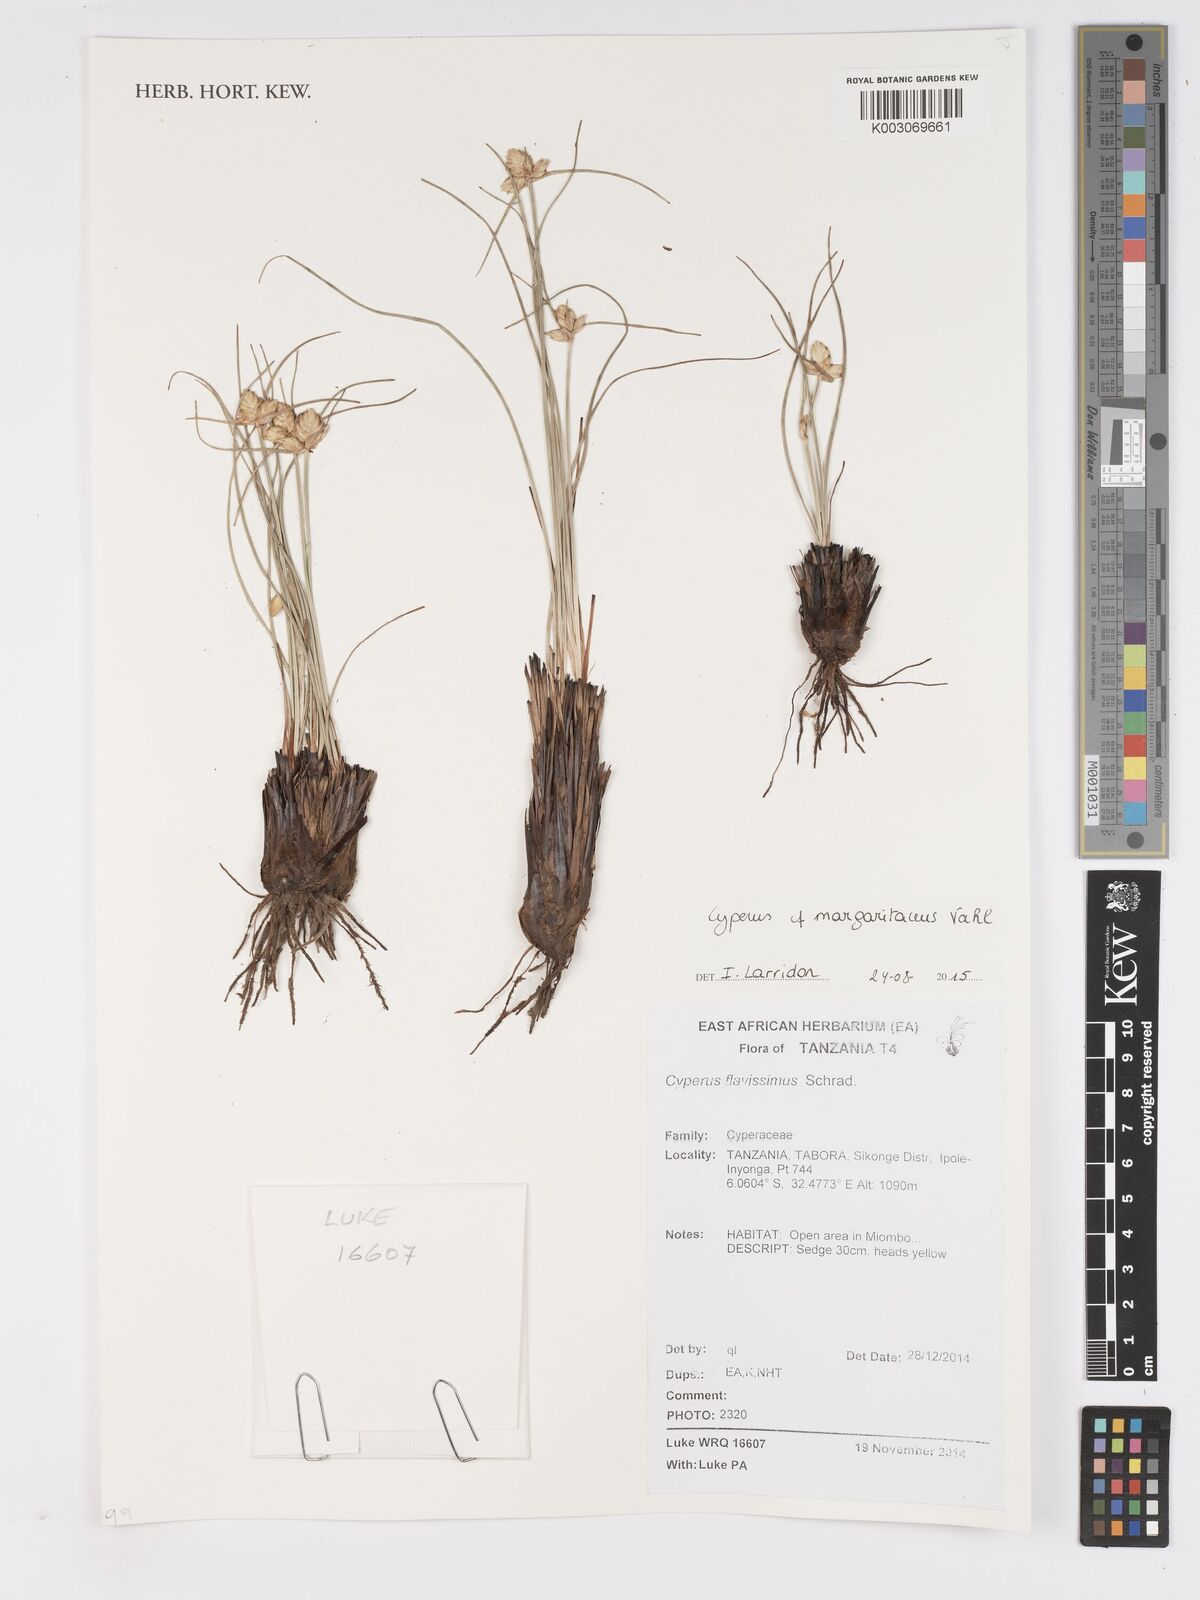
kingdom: Plantae
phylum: Tracheophyta
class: Liliopsida
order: Poales
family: Cyperaceae
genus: Cyperus
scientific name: Cyperus margaritaceus
